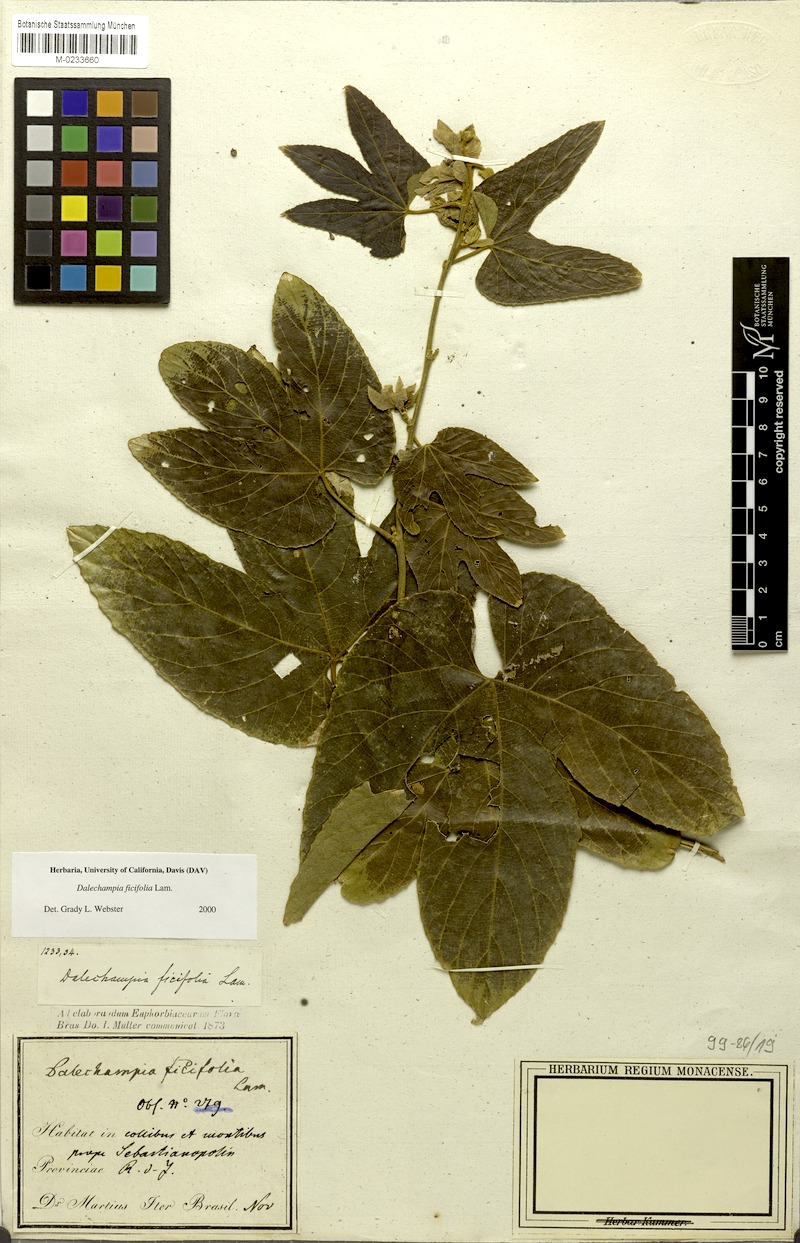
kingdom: Plantae
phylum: Tracheophyta
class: Magnoliopsida
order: Malpighiales
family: Euphorbiaceae
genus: Dalechampia
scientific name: Dalechampia ficifolia
